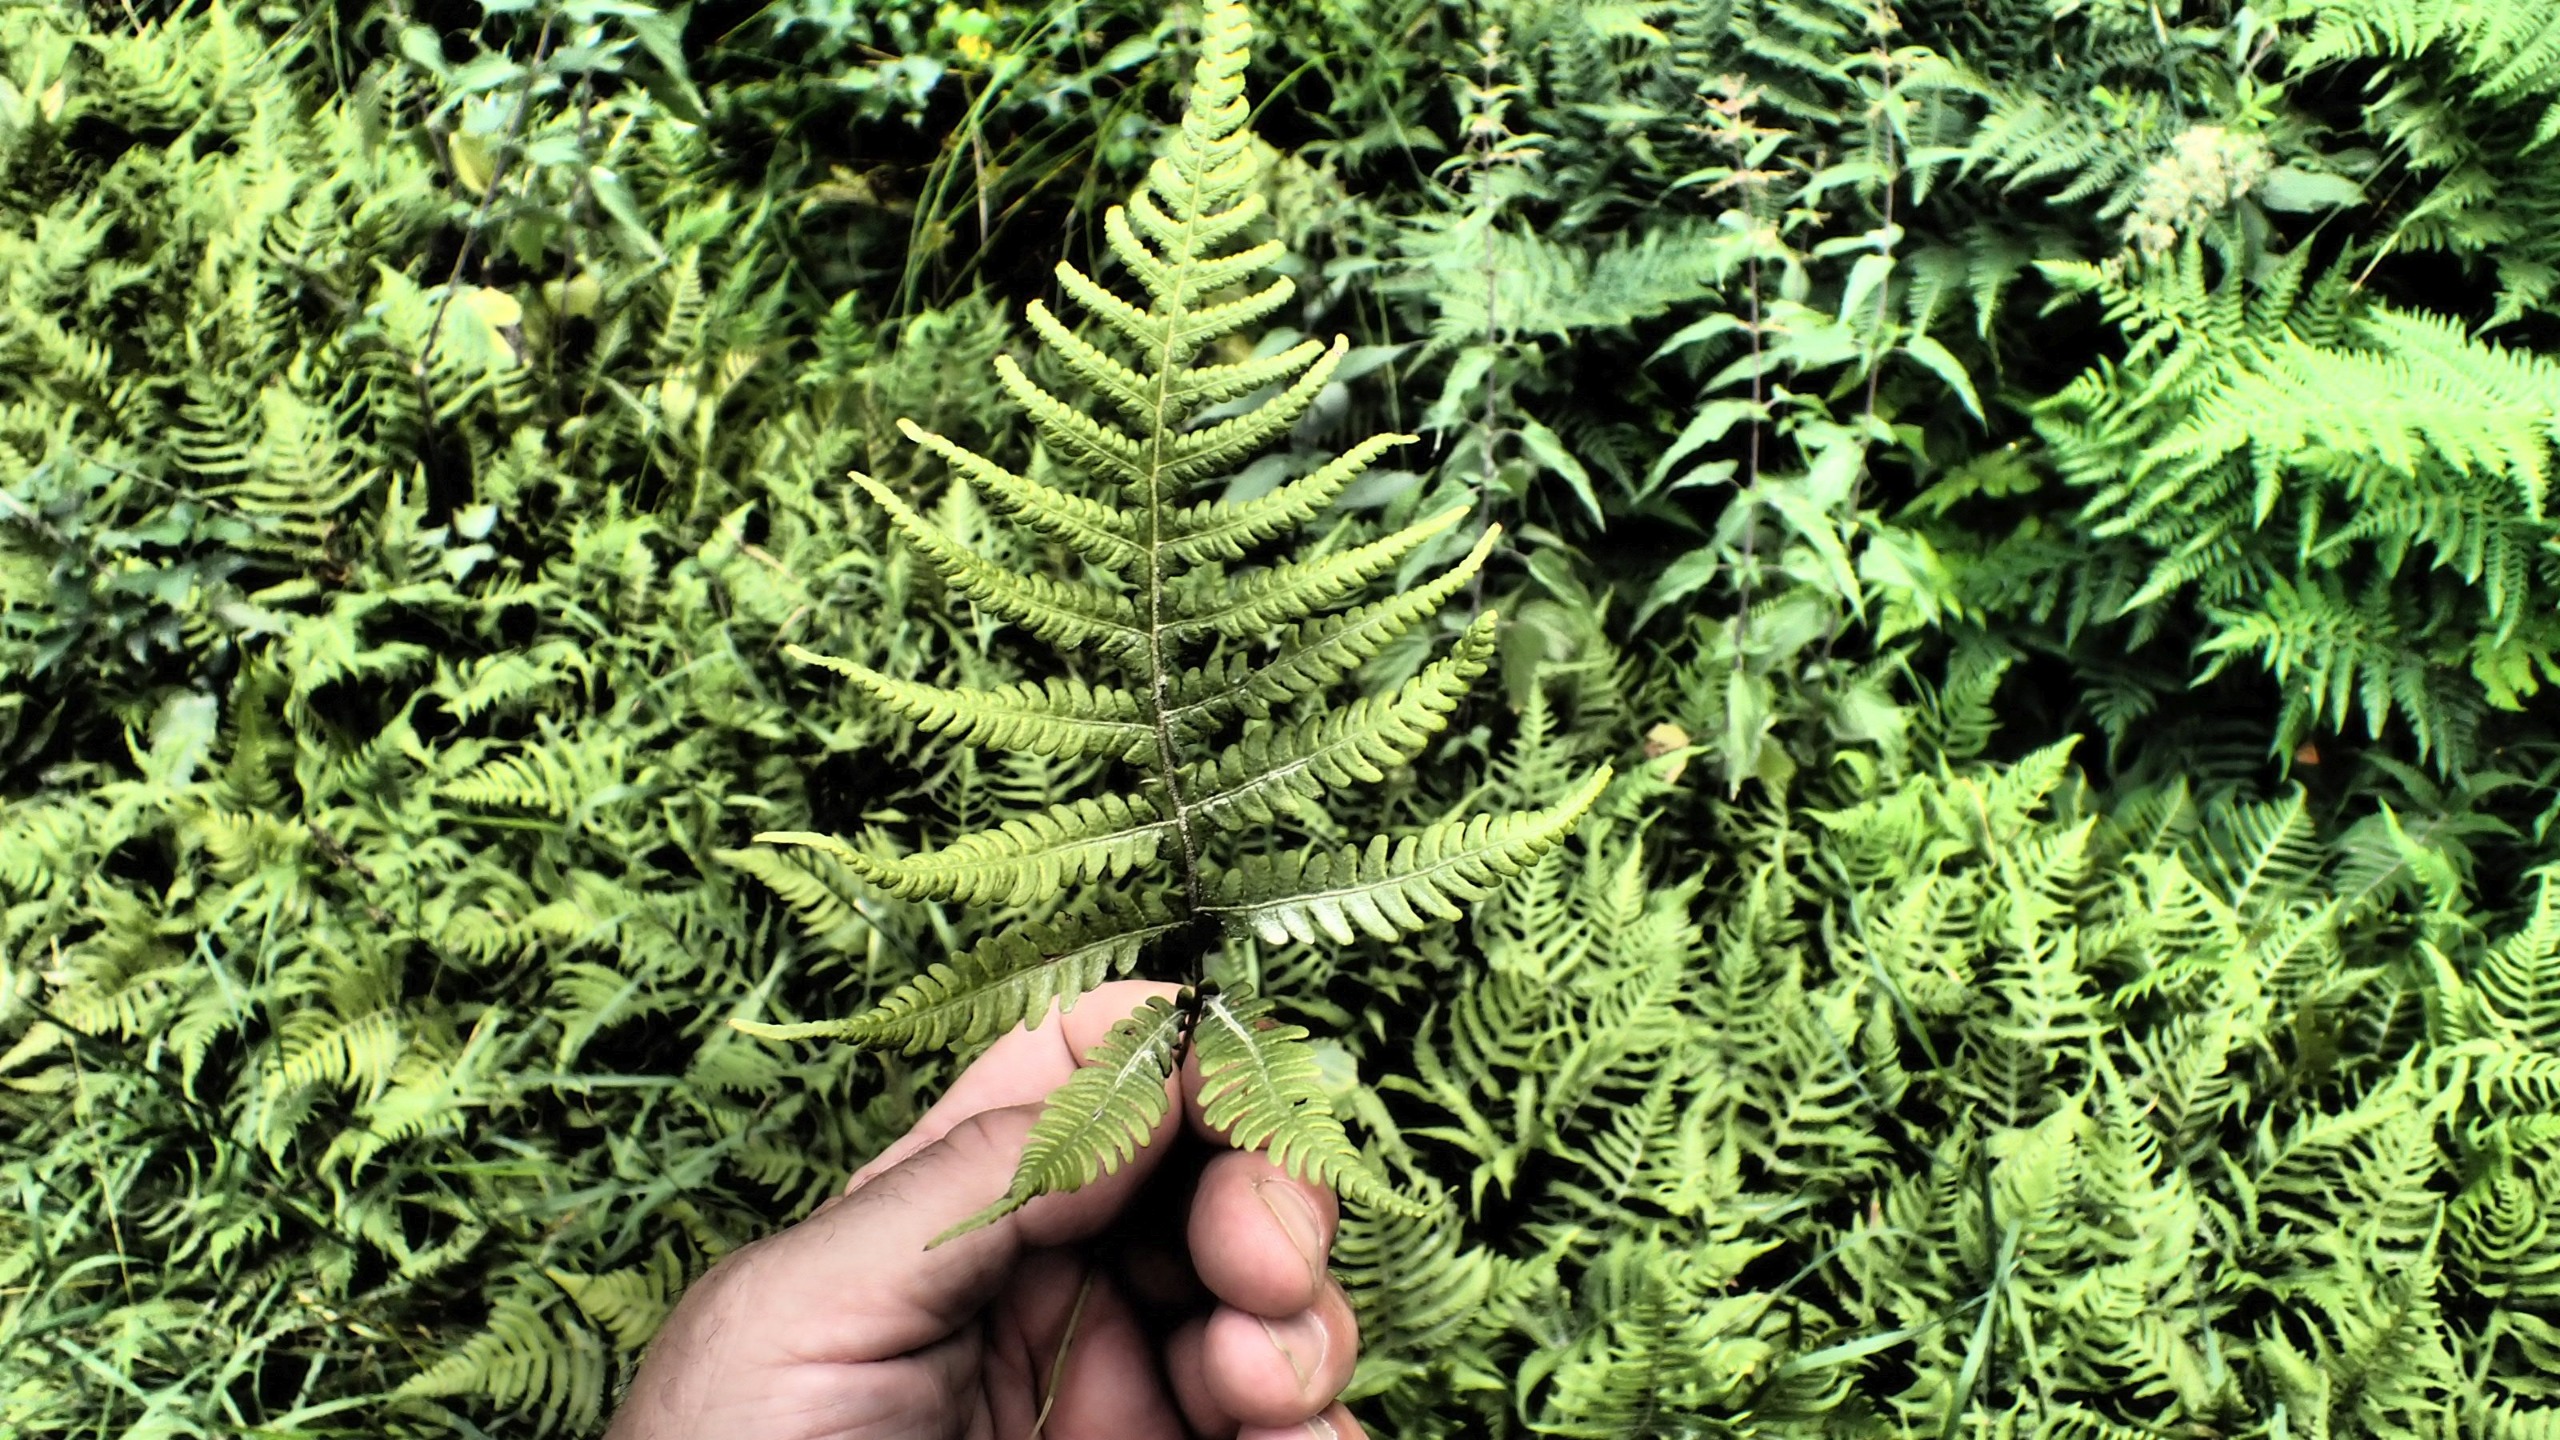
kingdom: Plantae
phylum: Tracheophyta
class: Polypodiopsida
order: Polypodiales
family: Thelypteridaceae
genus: Phegopteris
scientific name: Phegopteris connectilis
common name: Dunet egebregne
